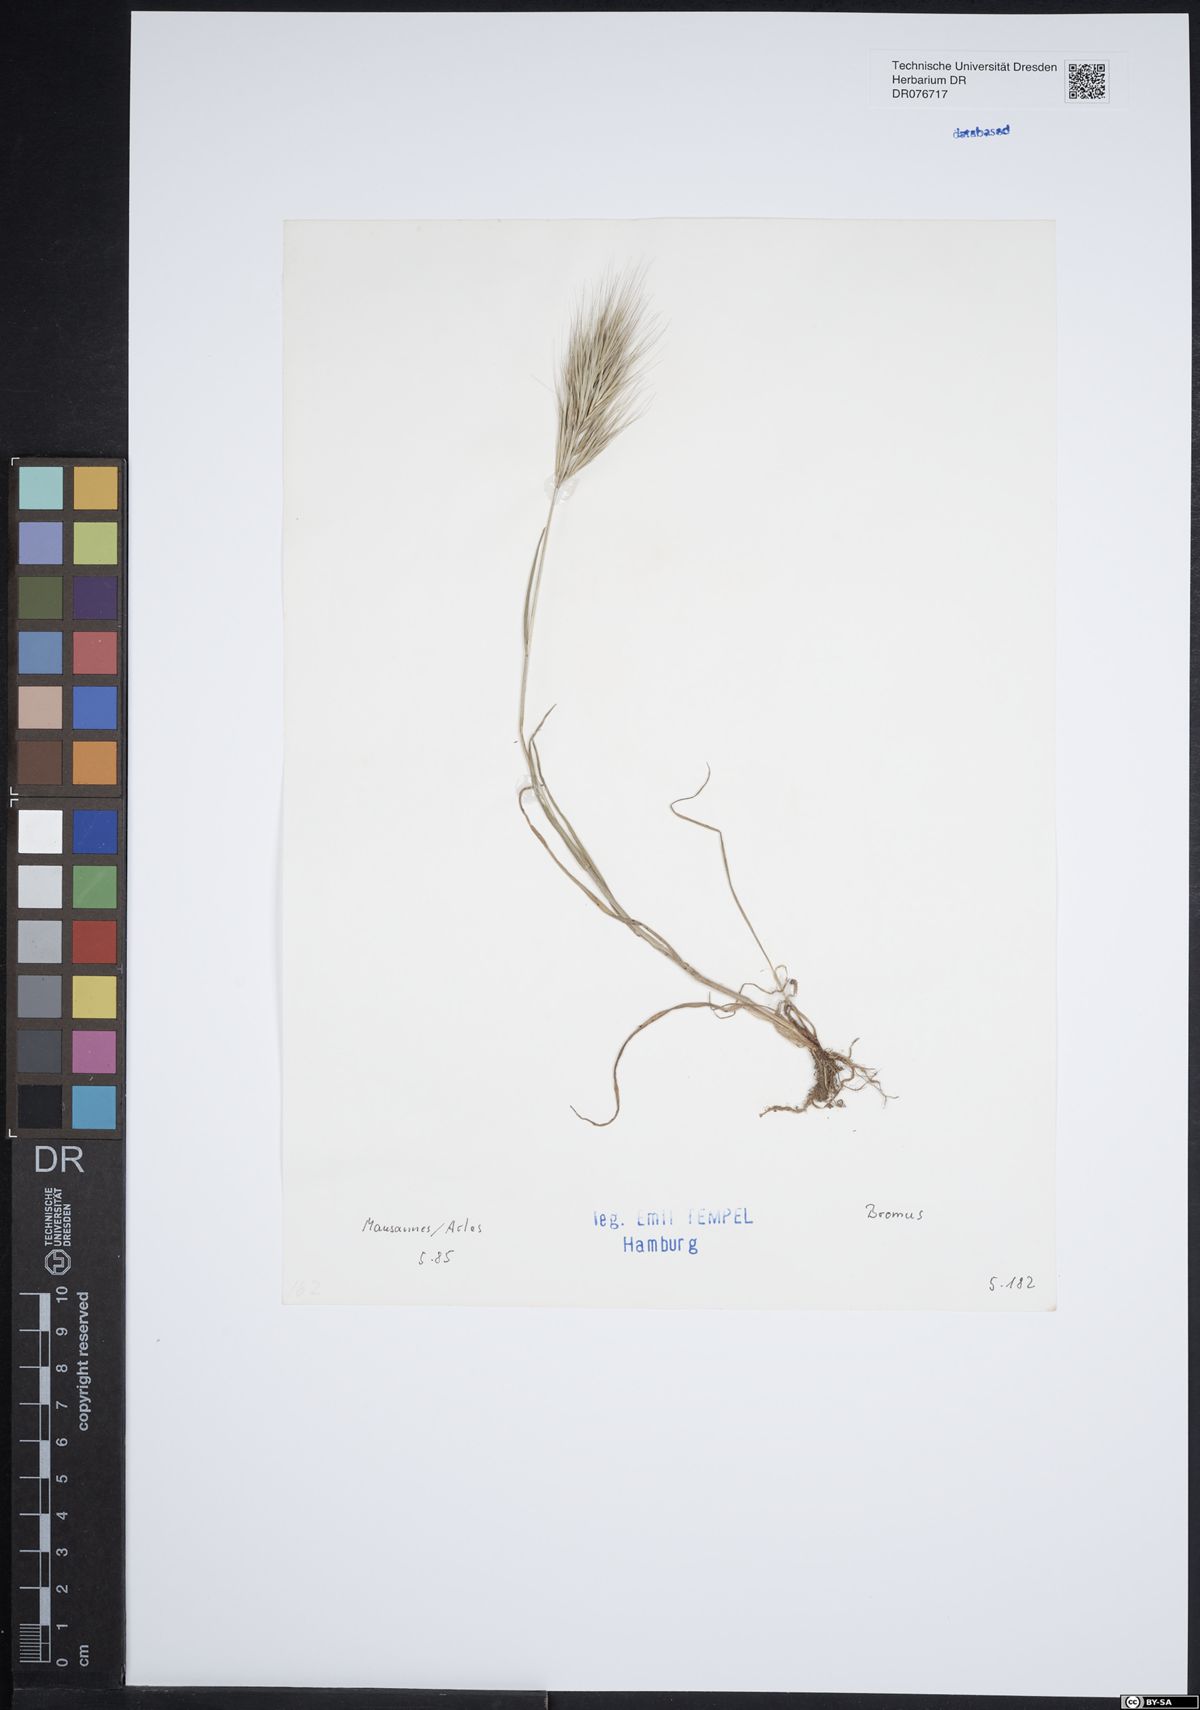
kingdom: Plantae
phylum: Tracheophyta
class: Liliopsida
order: Poales
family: Poaceae
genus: Bromus
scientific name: Bromus
